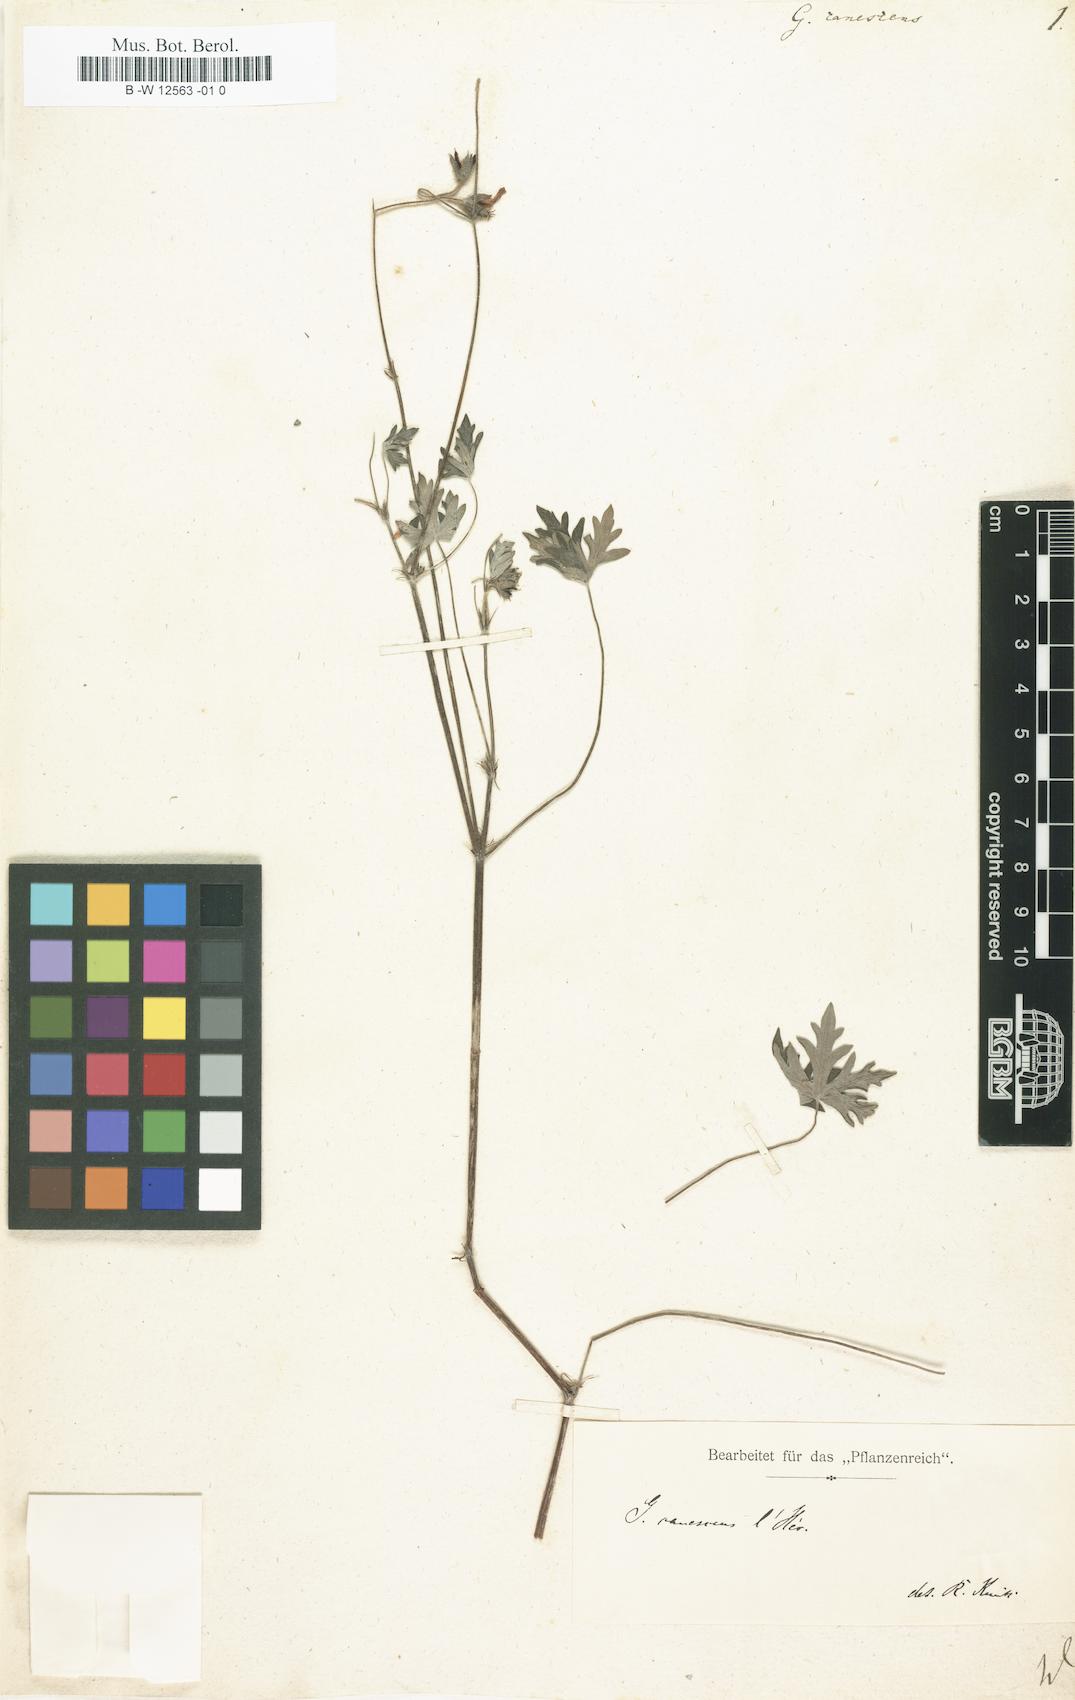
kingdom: Plantae
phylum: Tracheophyta
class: Magnoliopsida
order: Geraniales
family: Geraniaceae
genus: Geranium
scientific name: Geranium canescens
